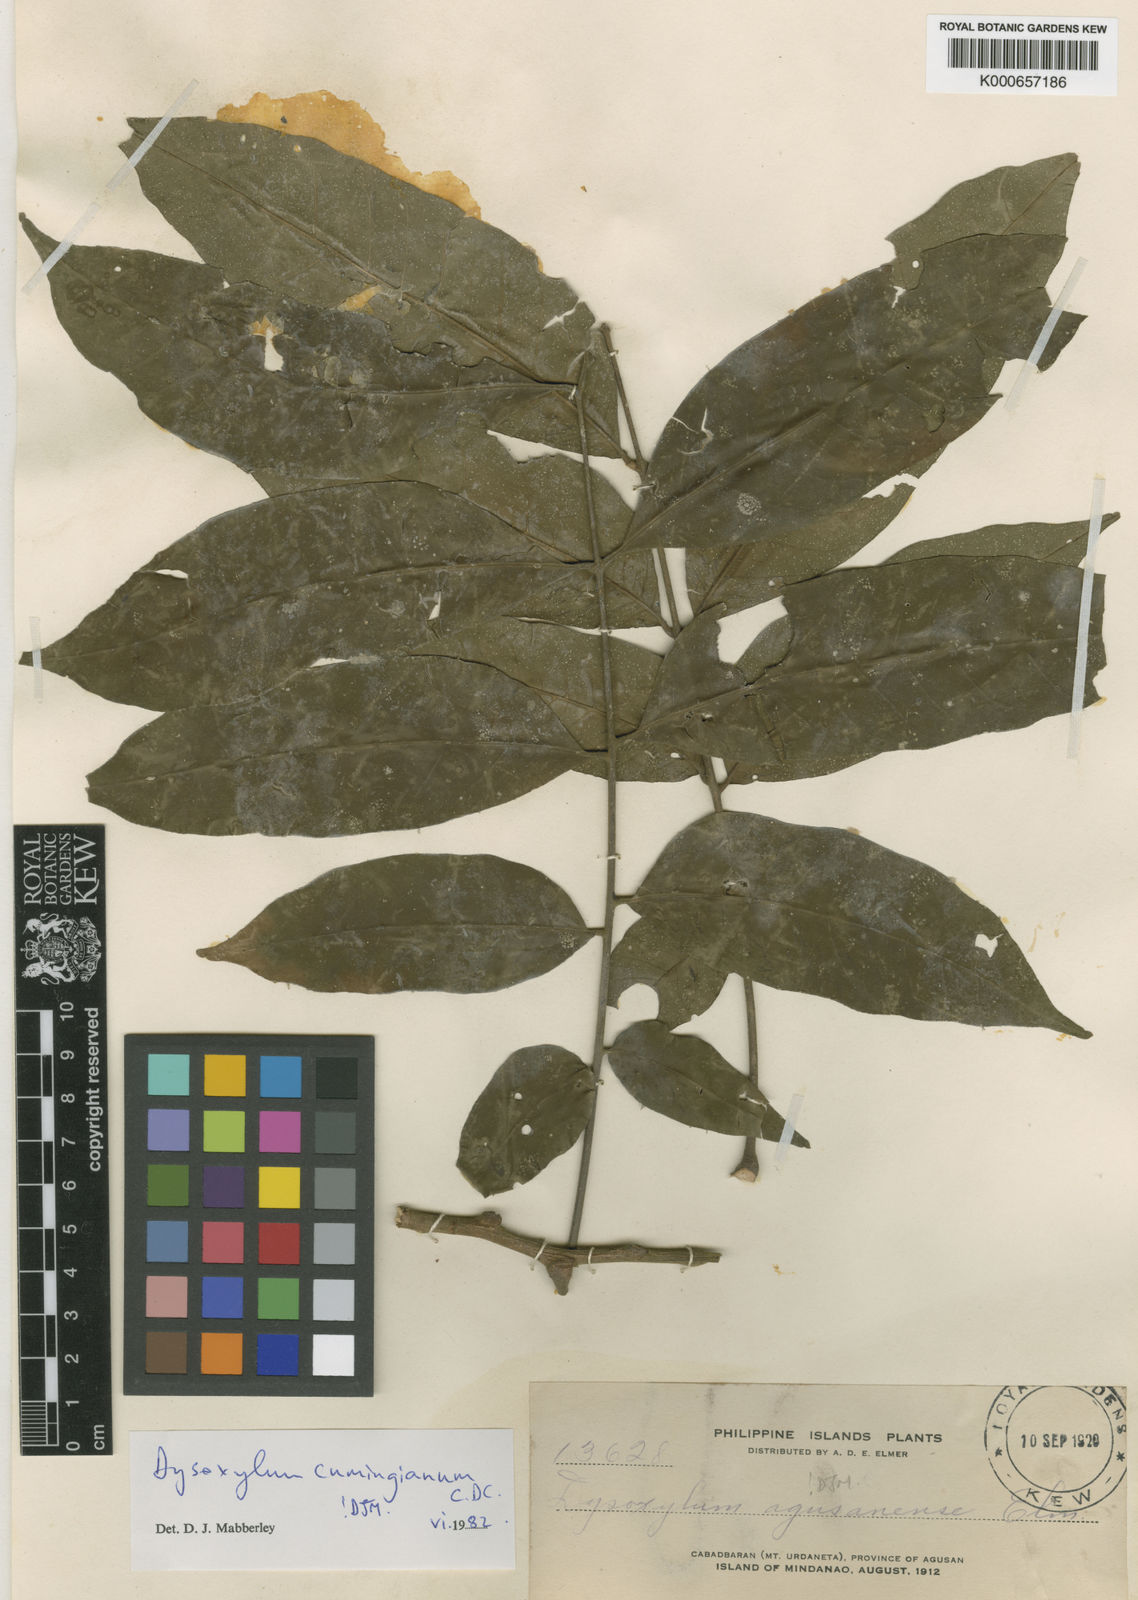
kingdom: Plantae
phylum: Tracheophyta
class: Magnoliopsida
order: Sapindales
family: Meliaceae
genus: Epicharis
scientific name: Epicharis cumingiana
